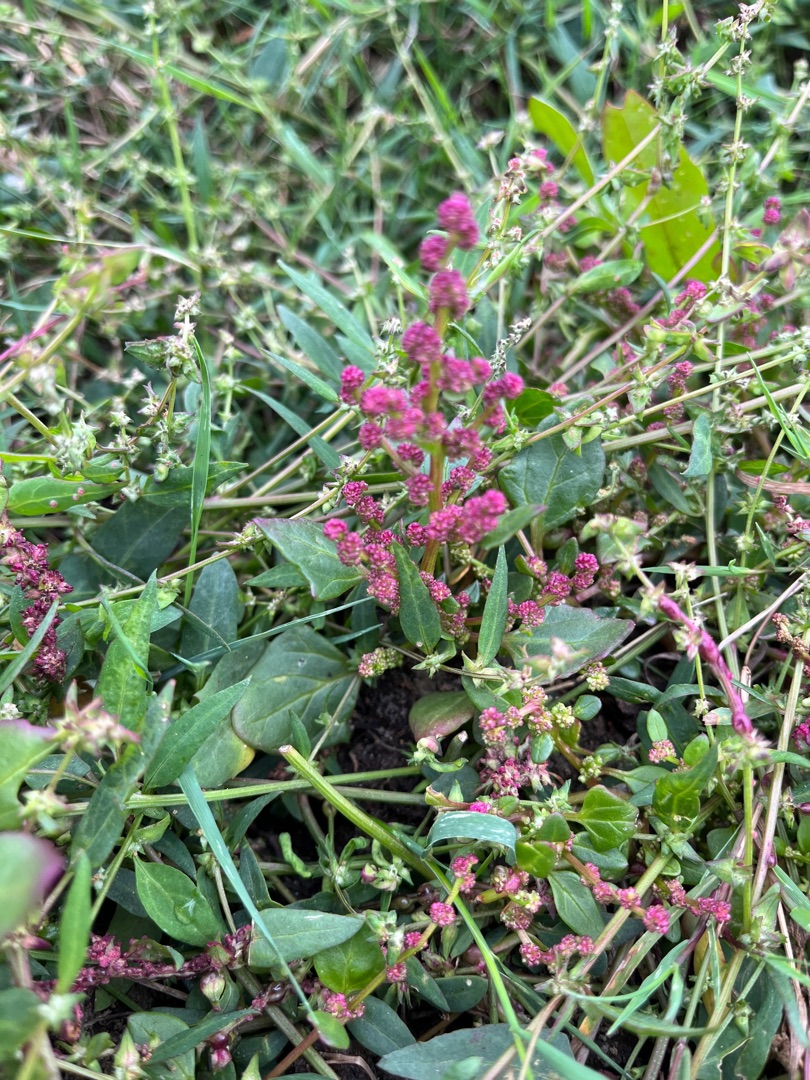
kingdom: Plantae
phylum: Tracheophyta
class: Magnoliopsida
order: Caryophyllales
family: Amaranthaceae
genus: Oxybasis
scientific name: Oxybasis chenopodioides
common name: Drue-gåsefod
